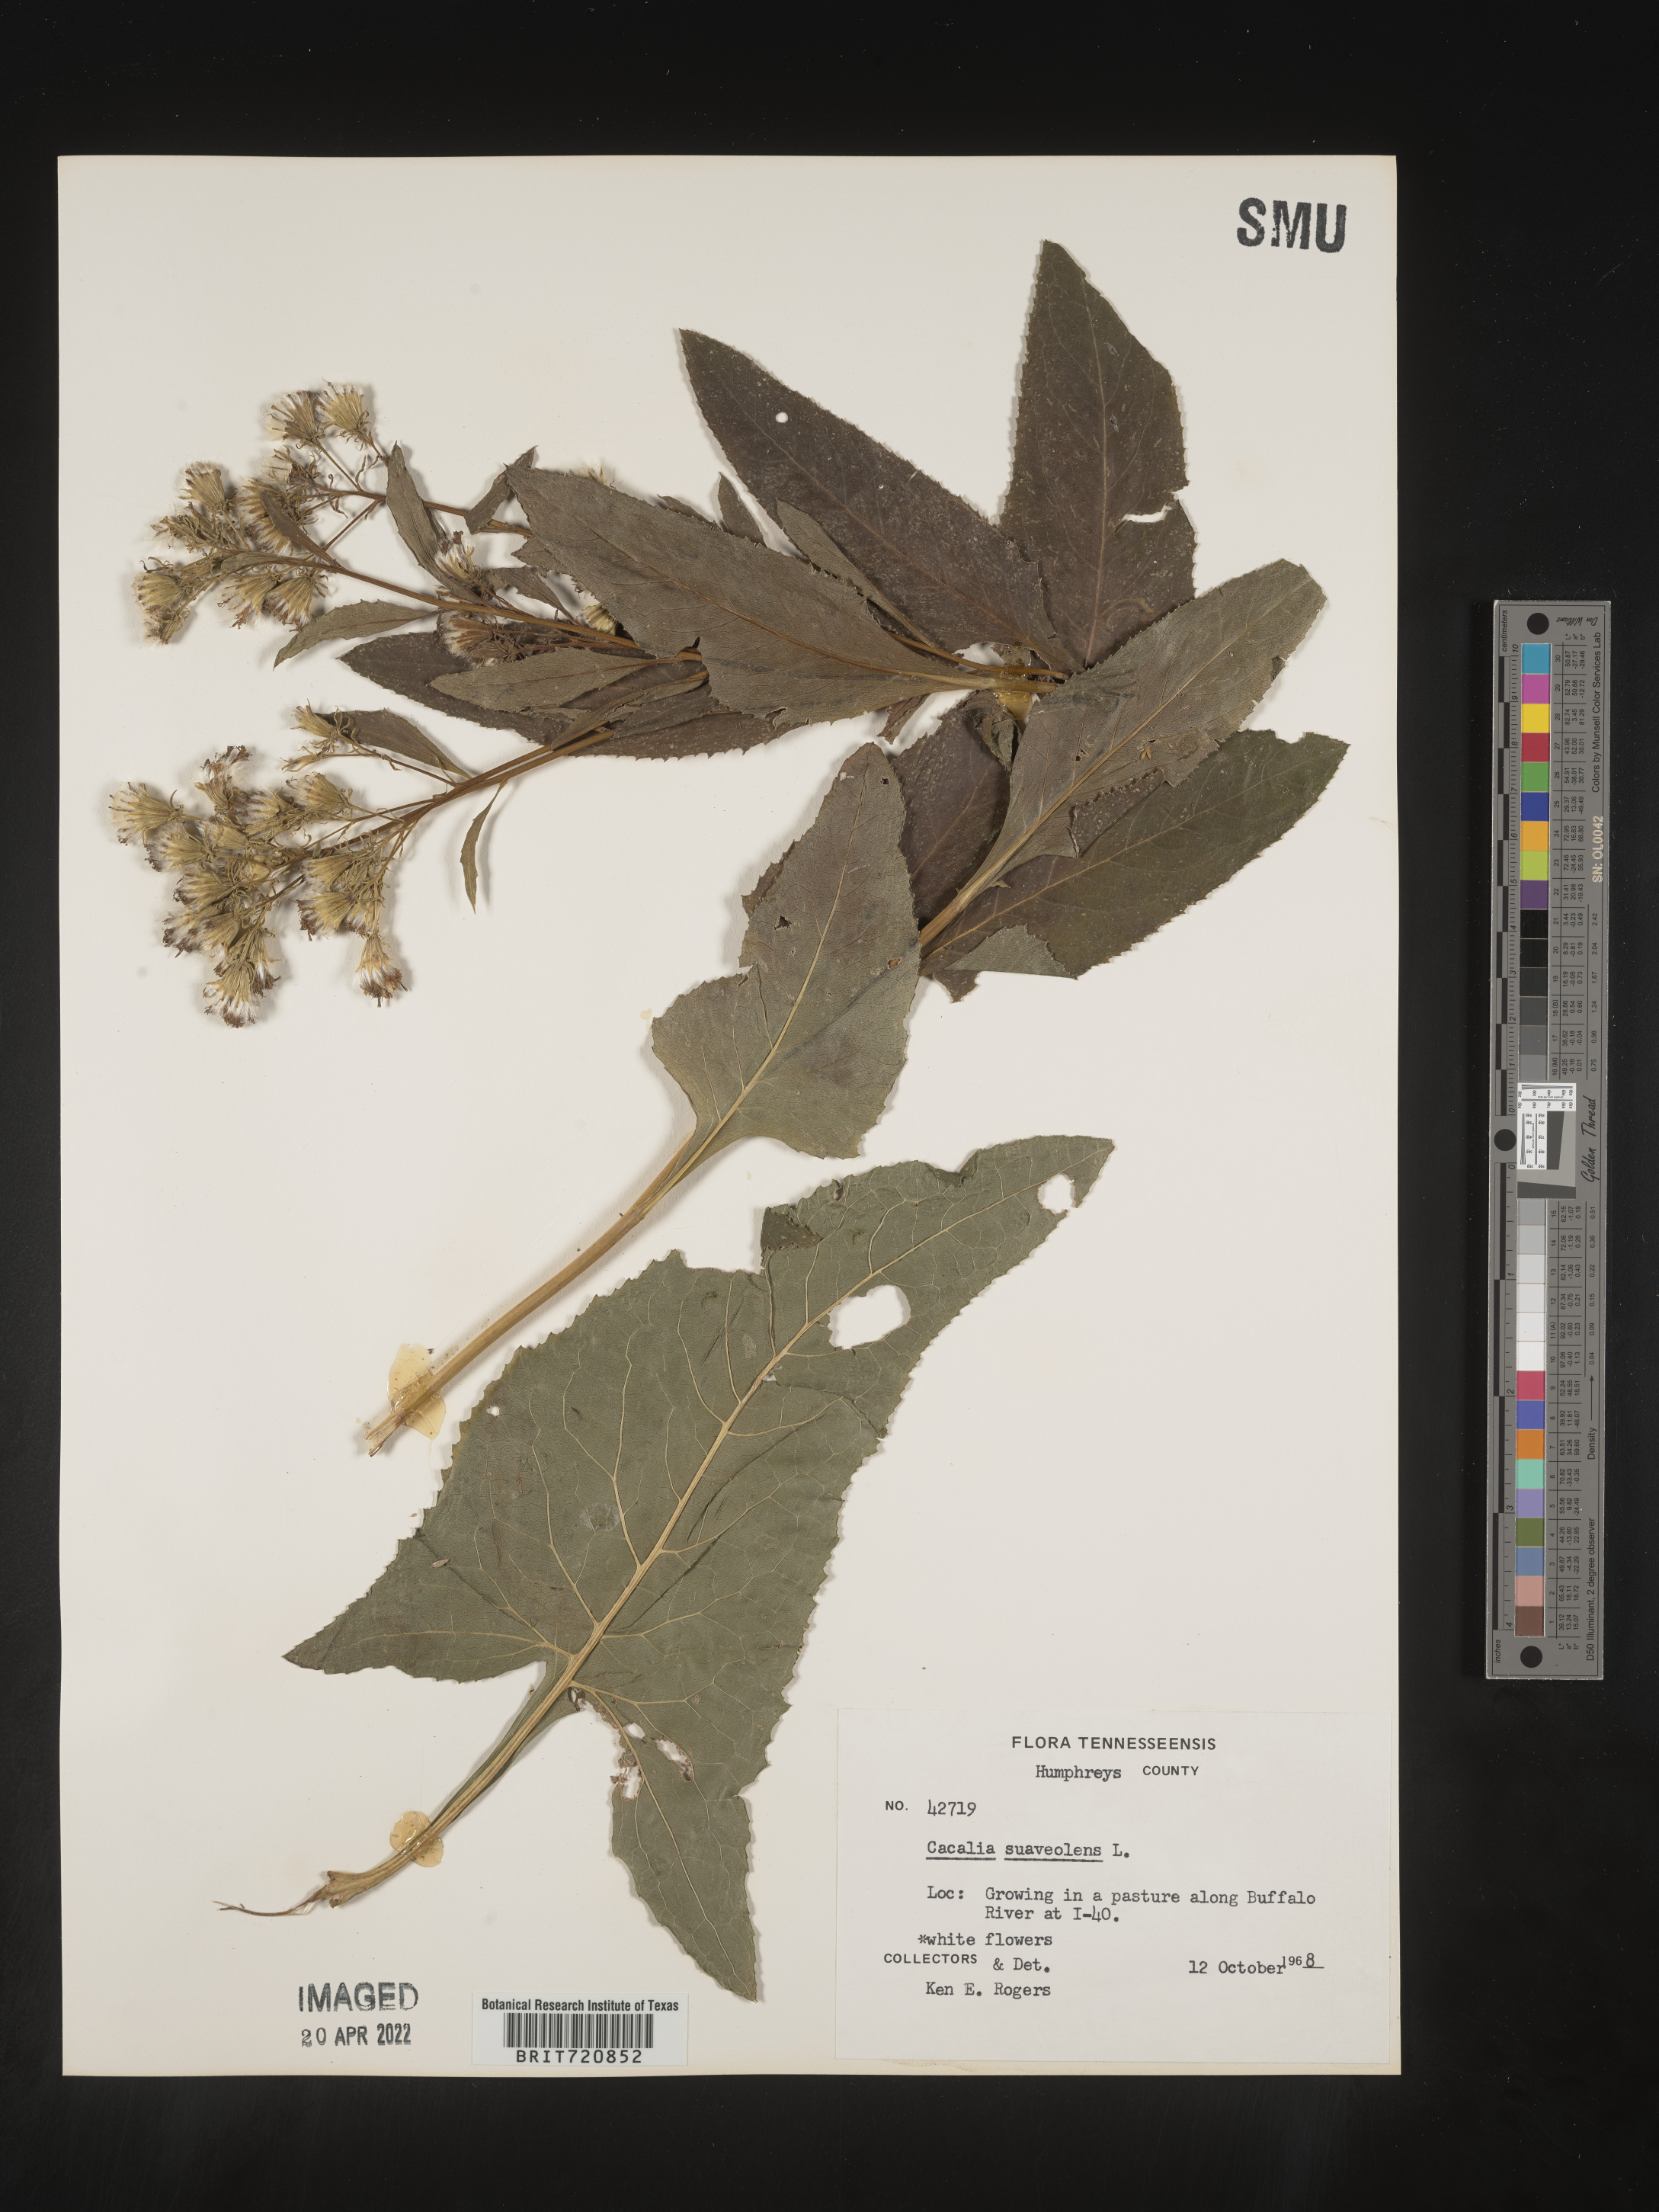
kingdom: Plantae
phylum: Tracheophyta
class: Magnoliopsida
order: Asterales
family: Asteraceae
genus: Hasteola
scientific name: Hasteola suaveolens
